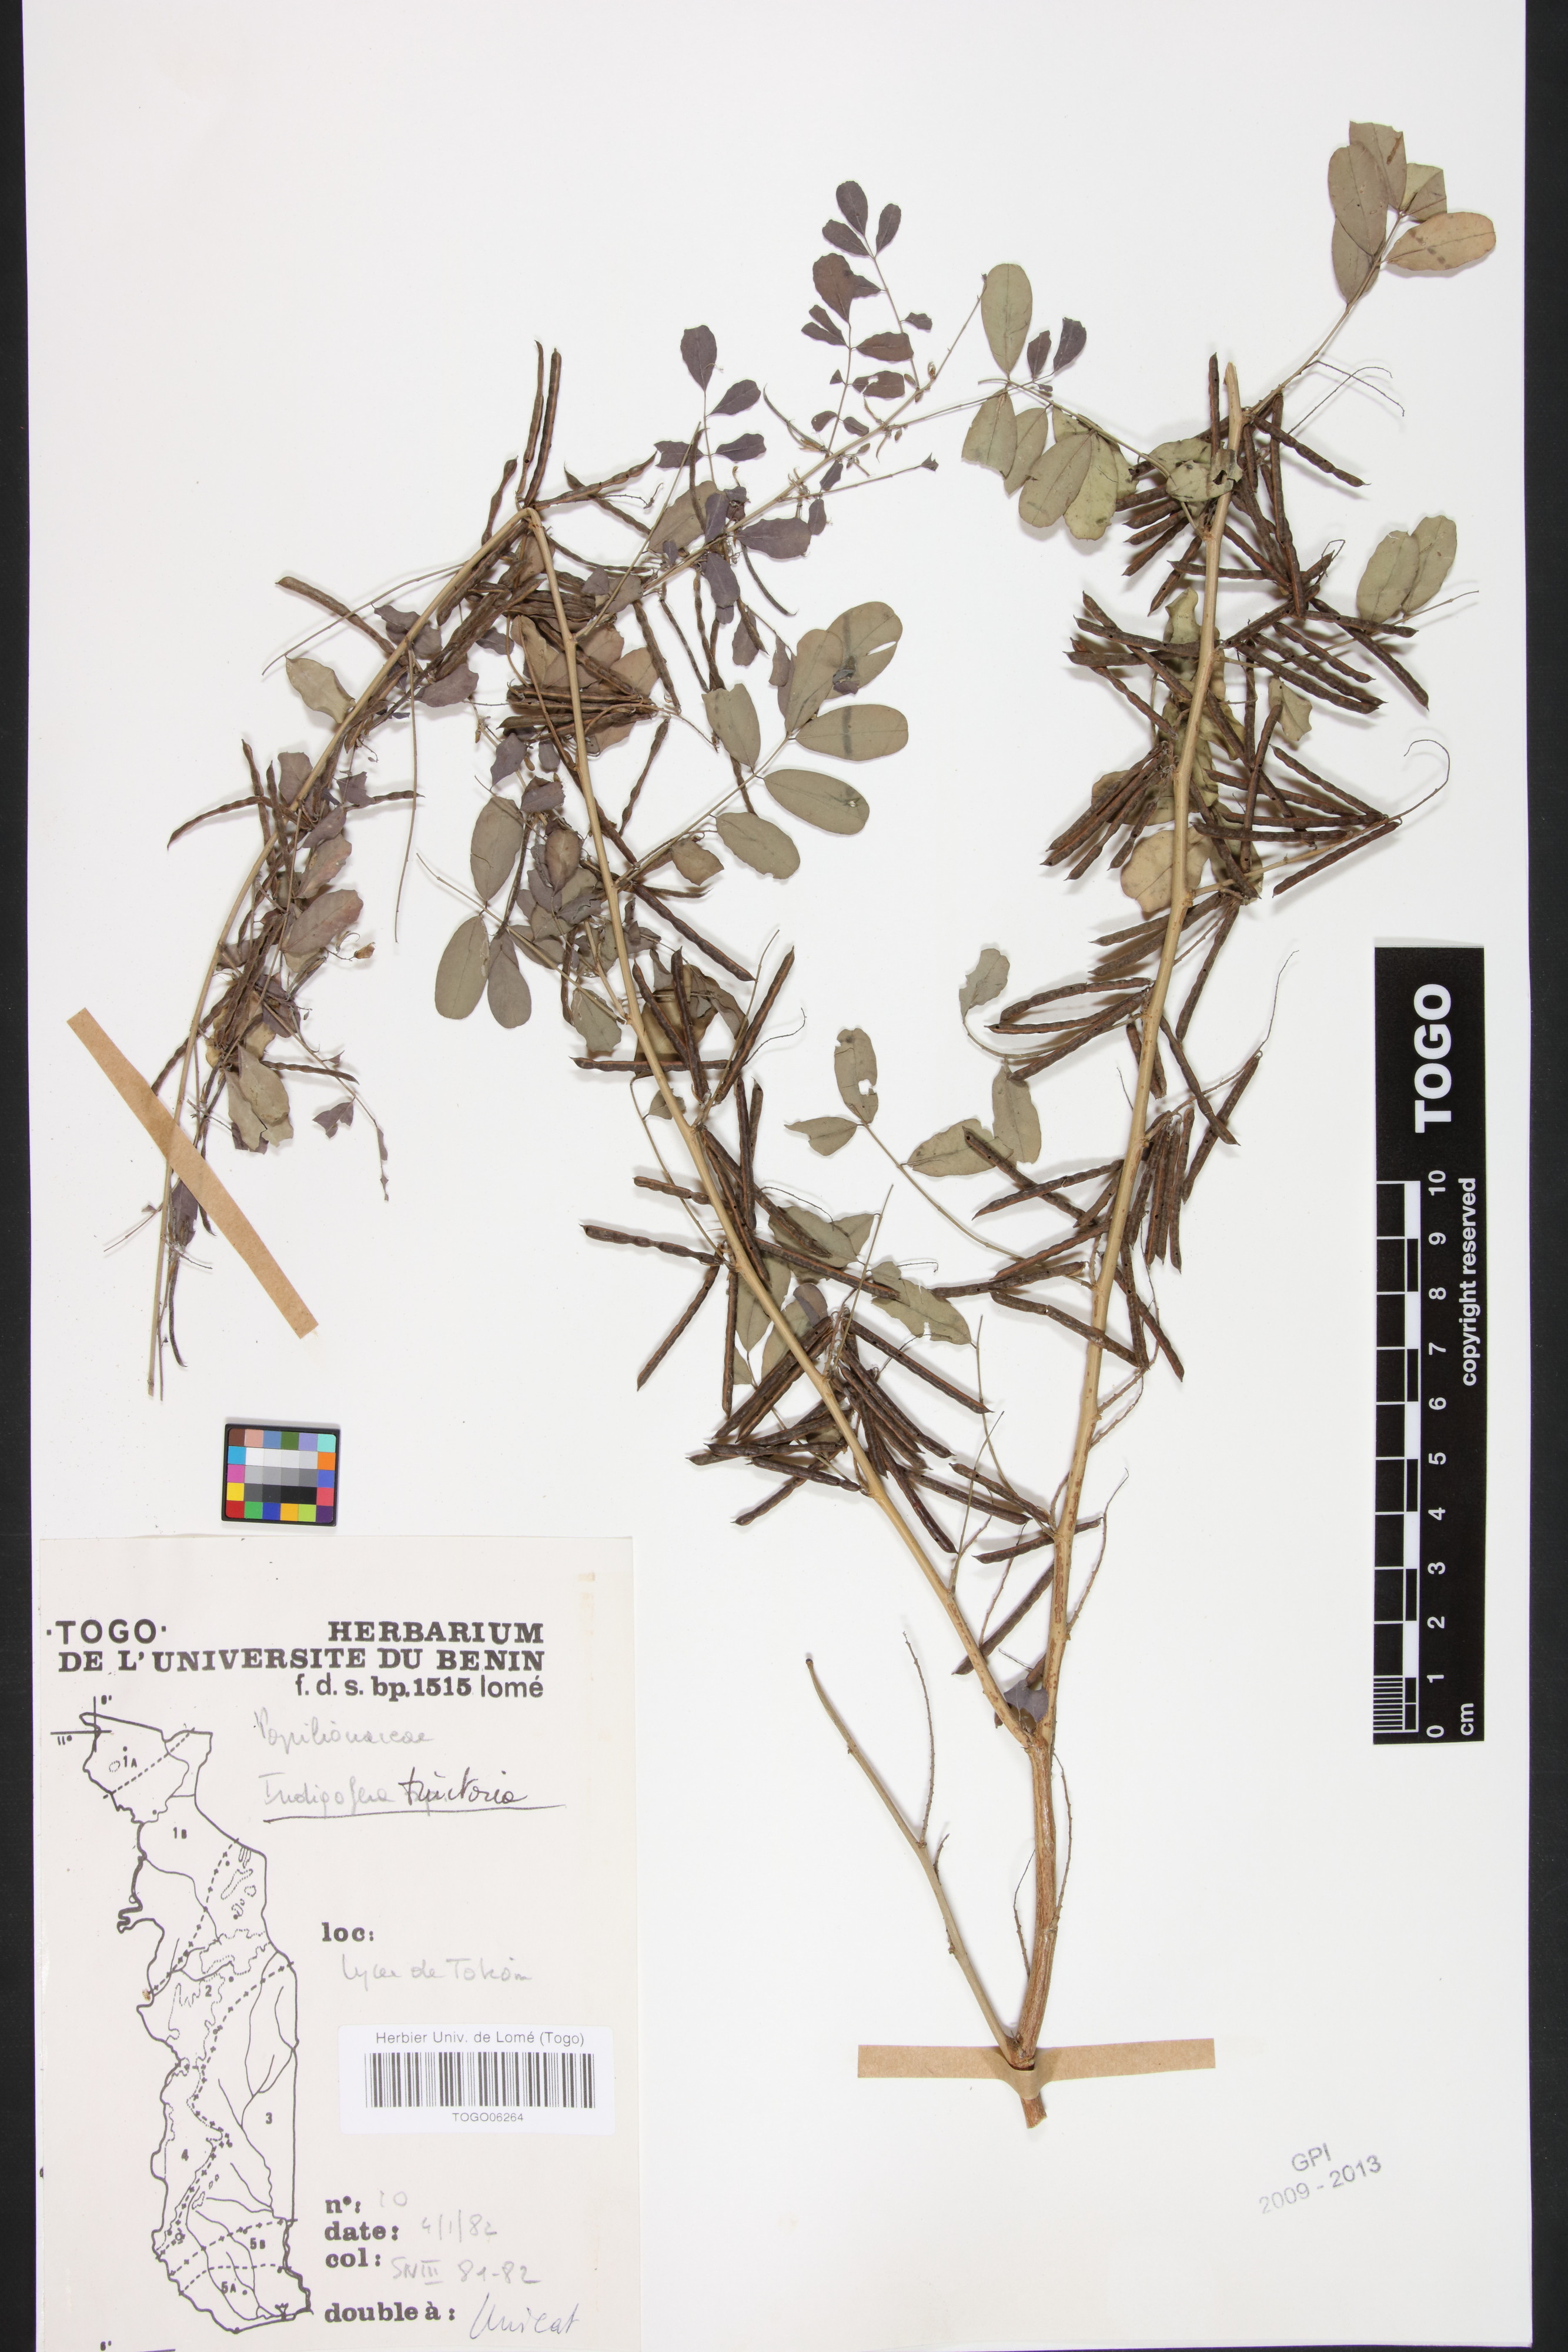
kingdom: Plantae
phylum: Tracheophyta
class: Magnoliopsida
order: Fabales
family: Fabaceae
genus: Indigofera
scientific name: Indigofera tinctoria
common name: True indigo
